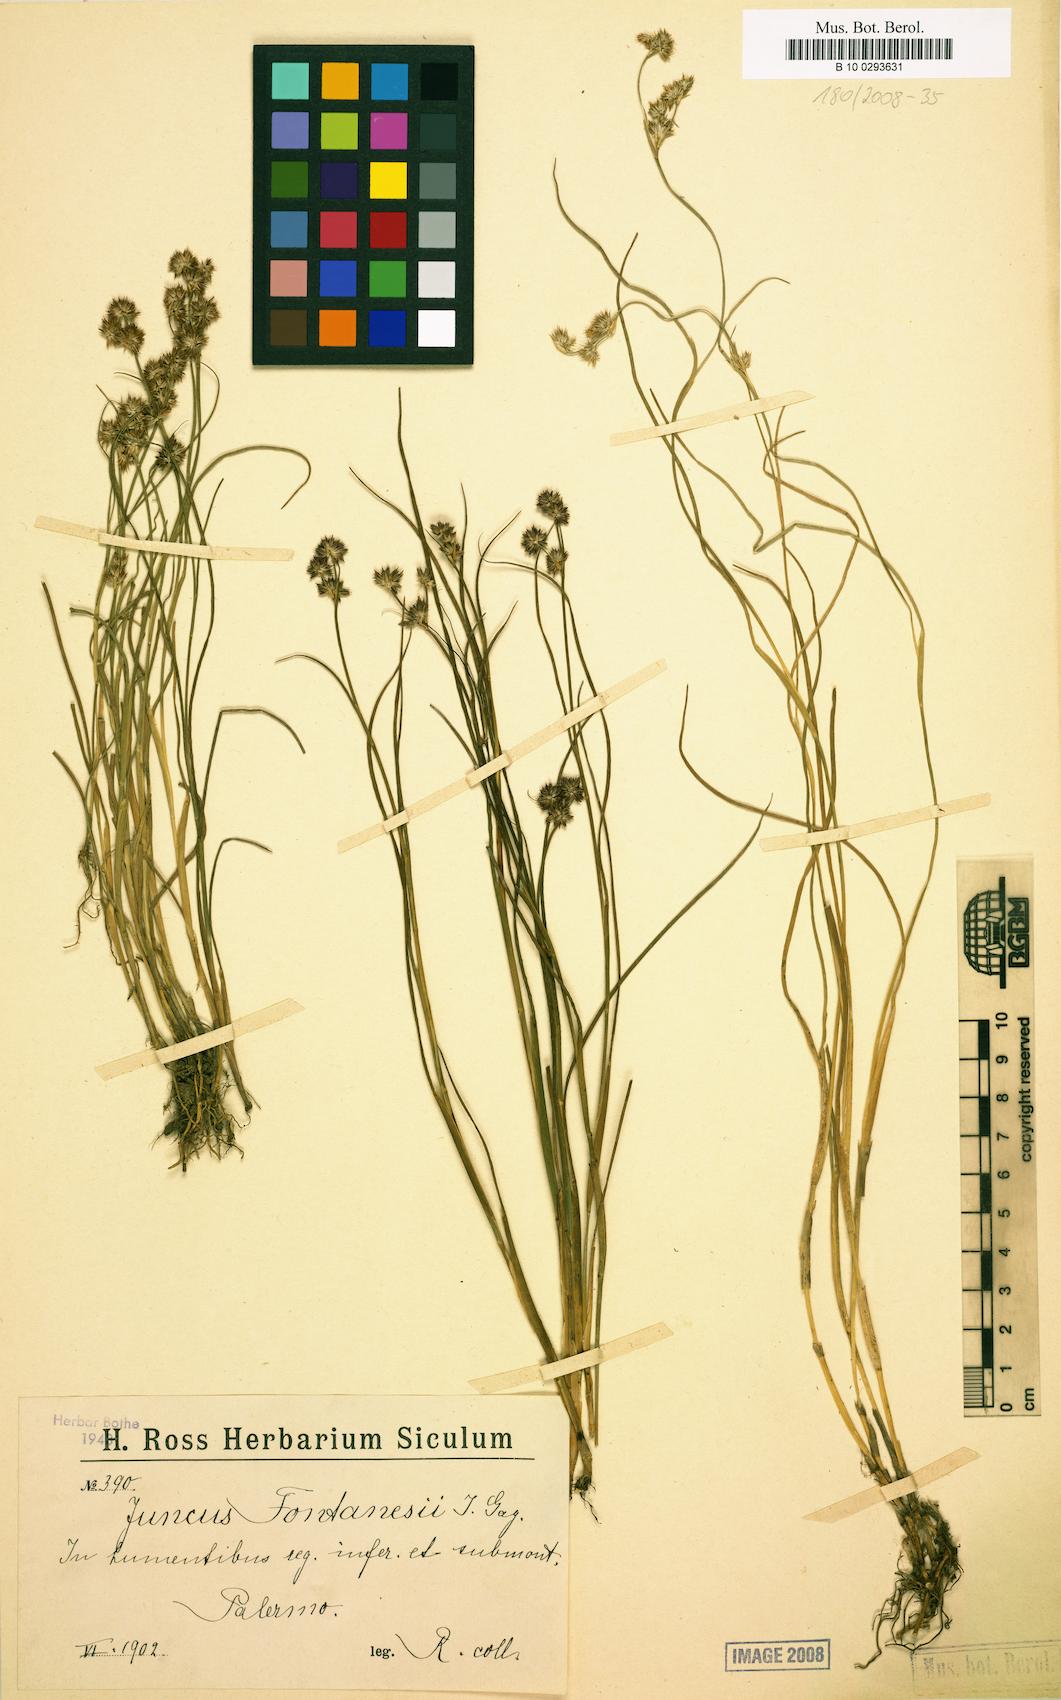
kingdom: Plantae
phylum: Tracheophyta
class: Liliopsida
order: Poales
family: Juncaceae
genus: Juncus
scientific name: Juncus fontanesii
